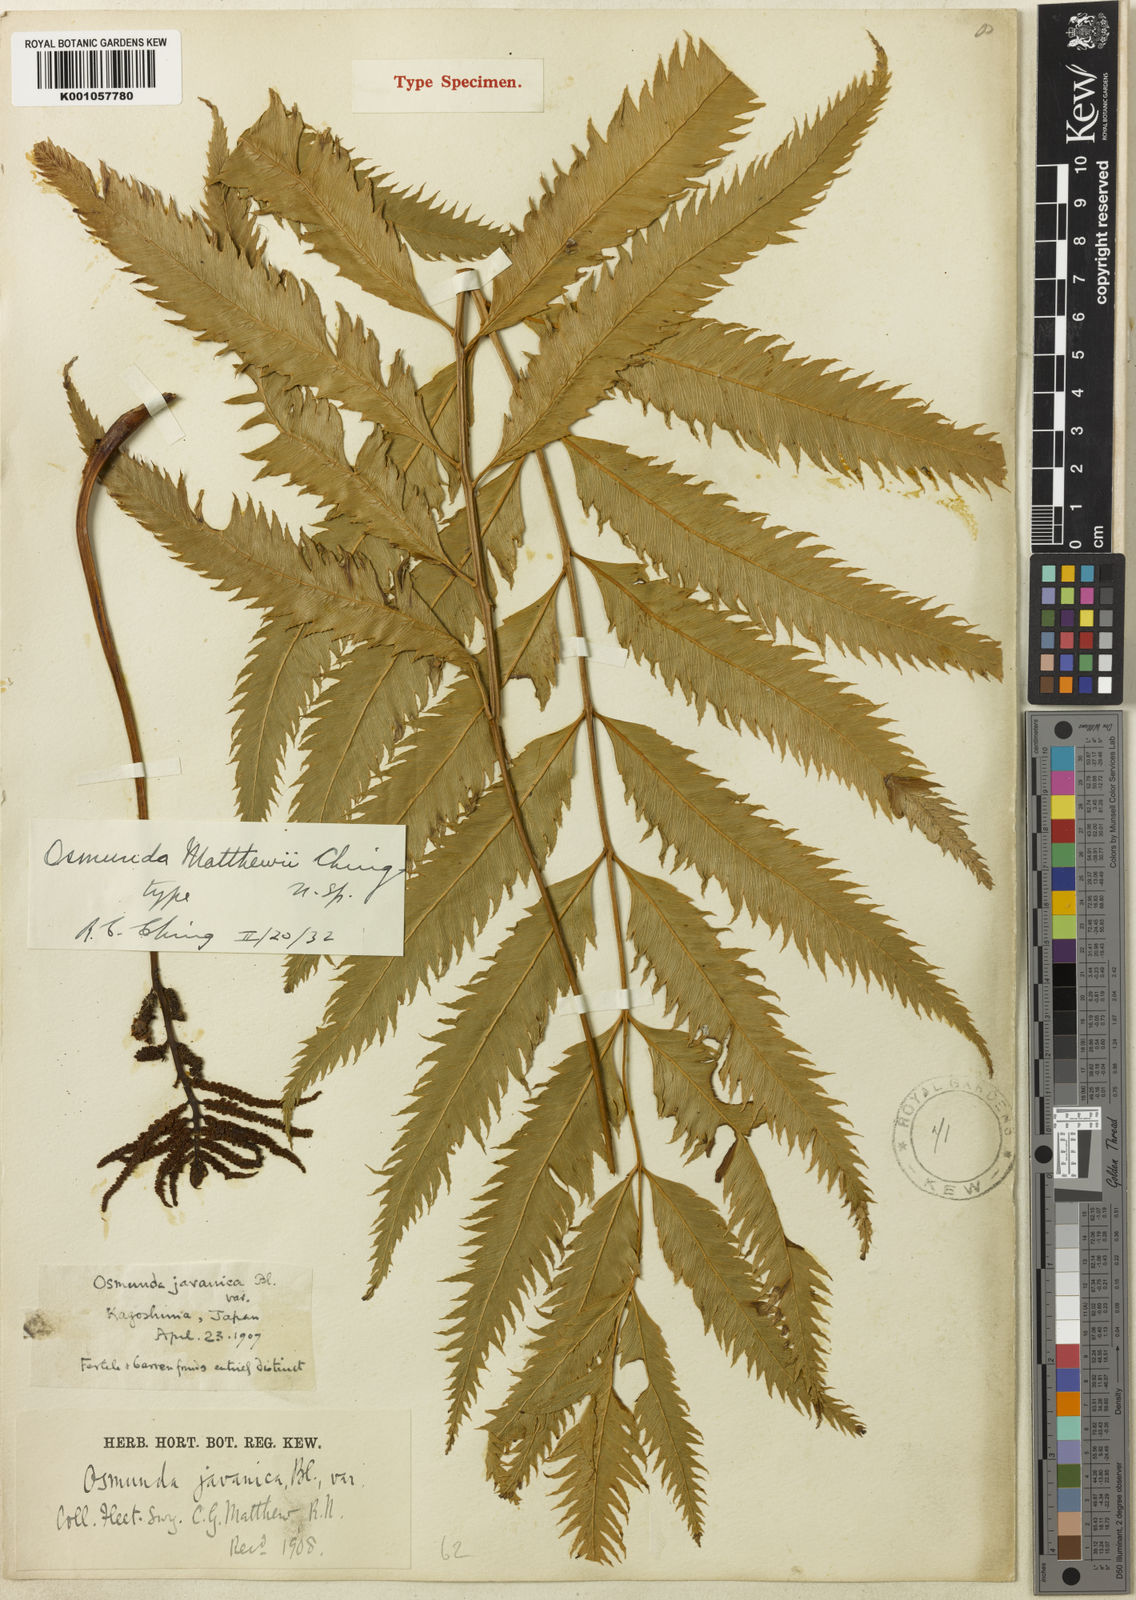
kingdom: Plantae
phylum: Tracheophyta
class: Polypodiopsida
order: Osmundales
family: Osmundaceae
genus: Osmunda
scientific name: Osmunda
